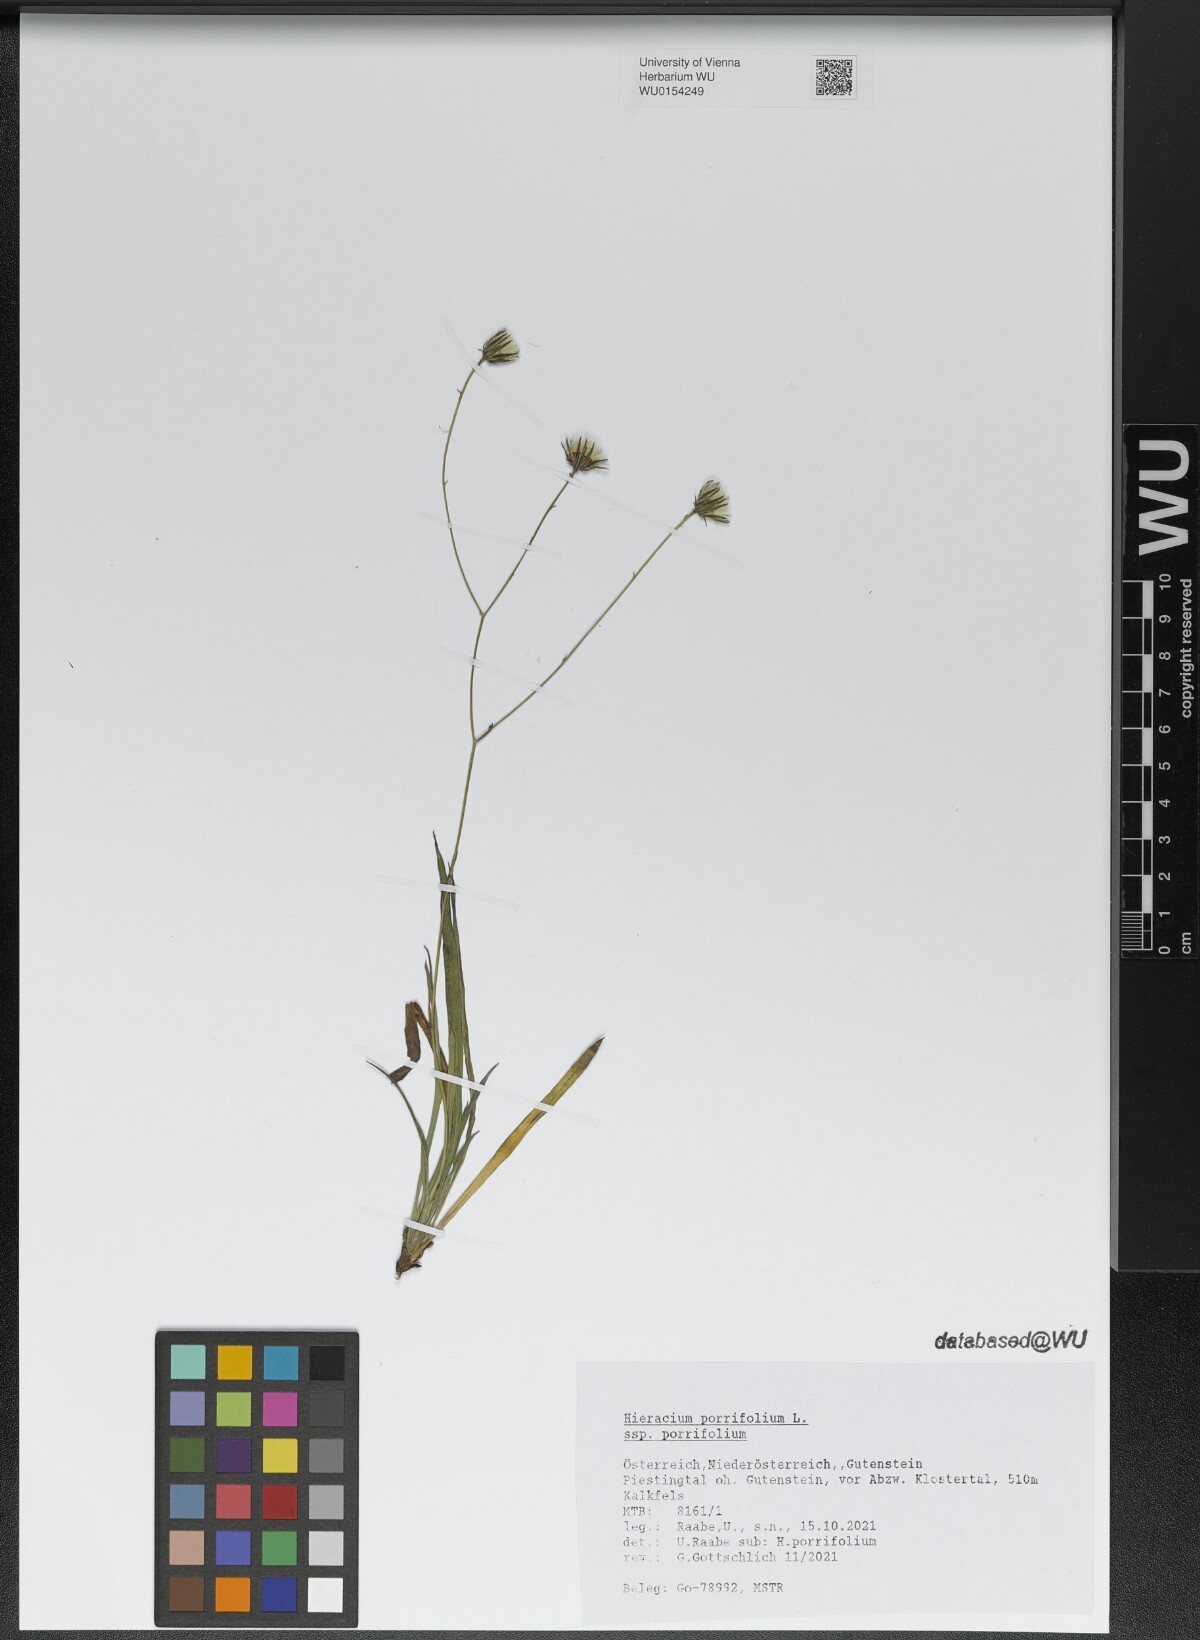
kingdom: Plantae
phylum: Tracheophyta
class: Magnoliopsida
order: Asterales
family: Asteraceae
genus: Hieracium
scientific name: Hieracium porrifolium
